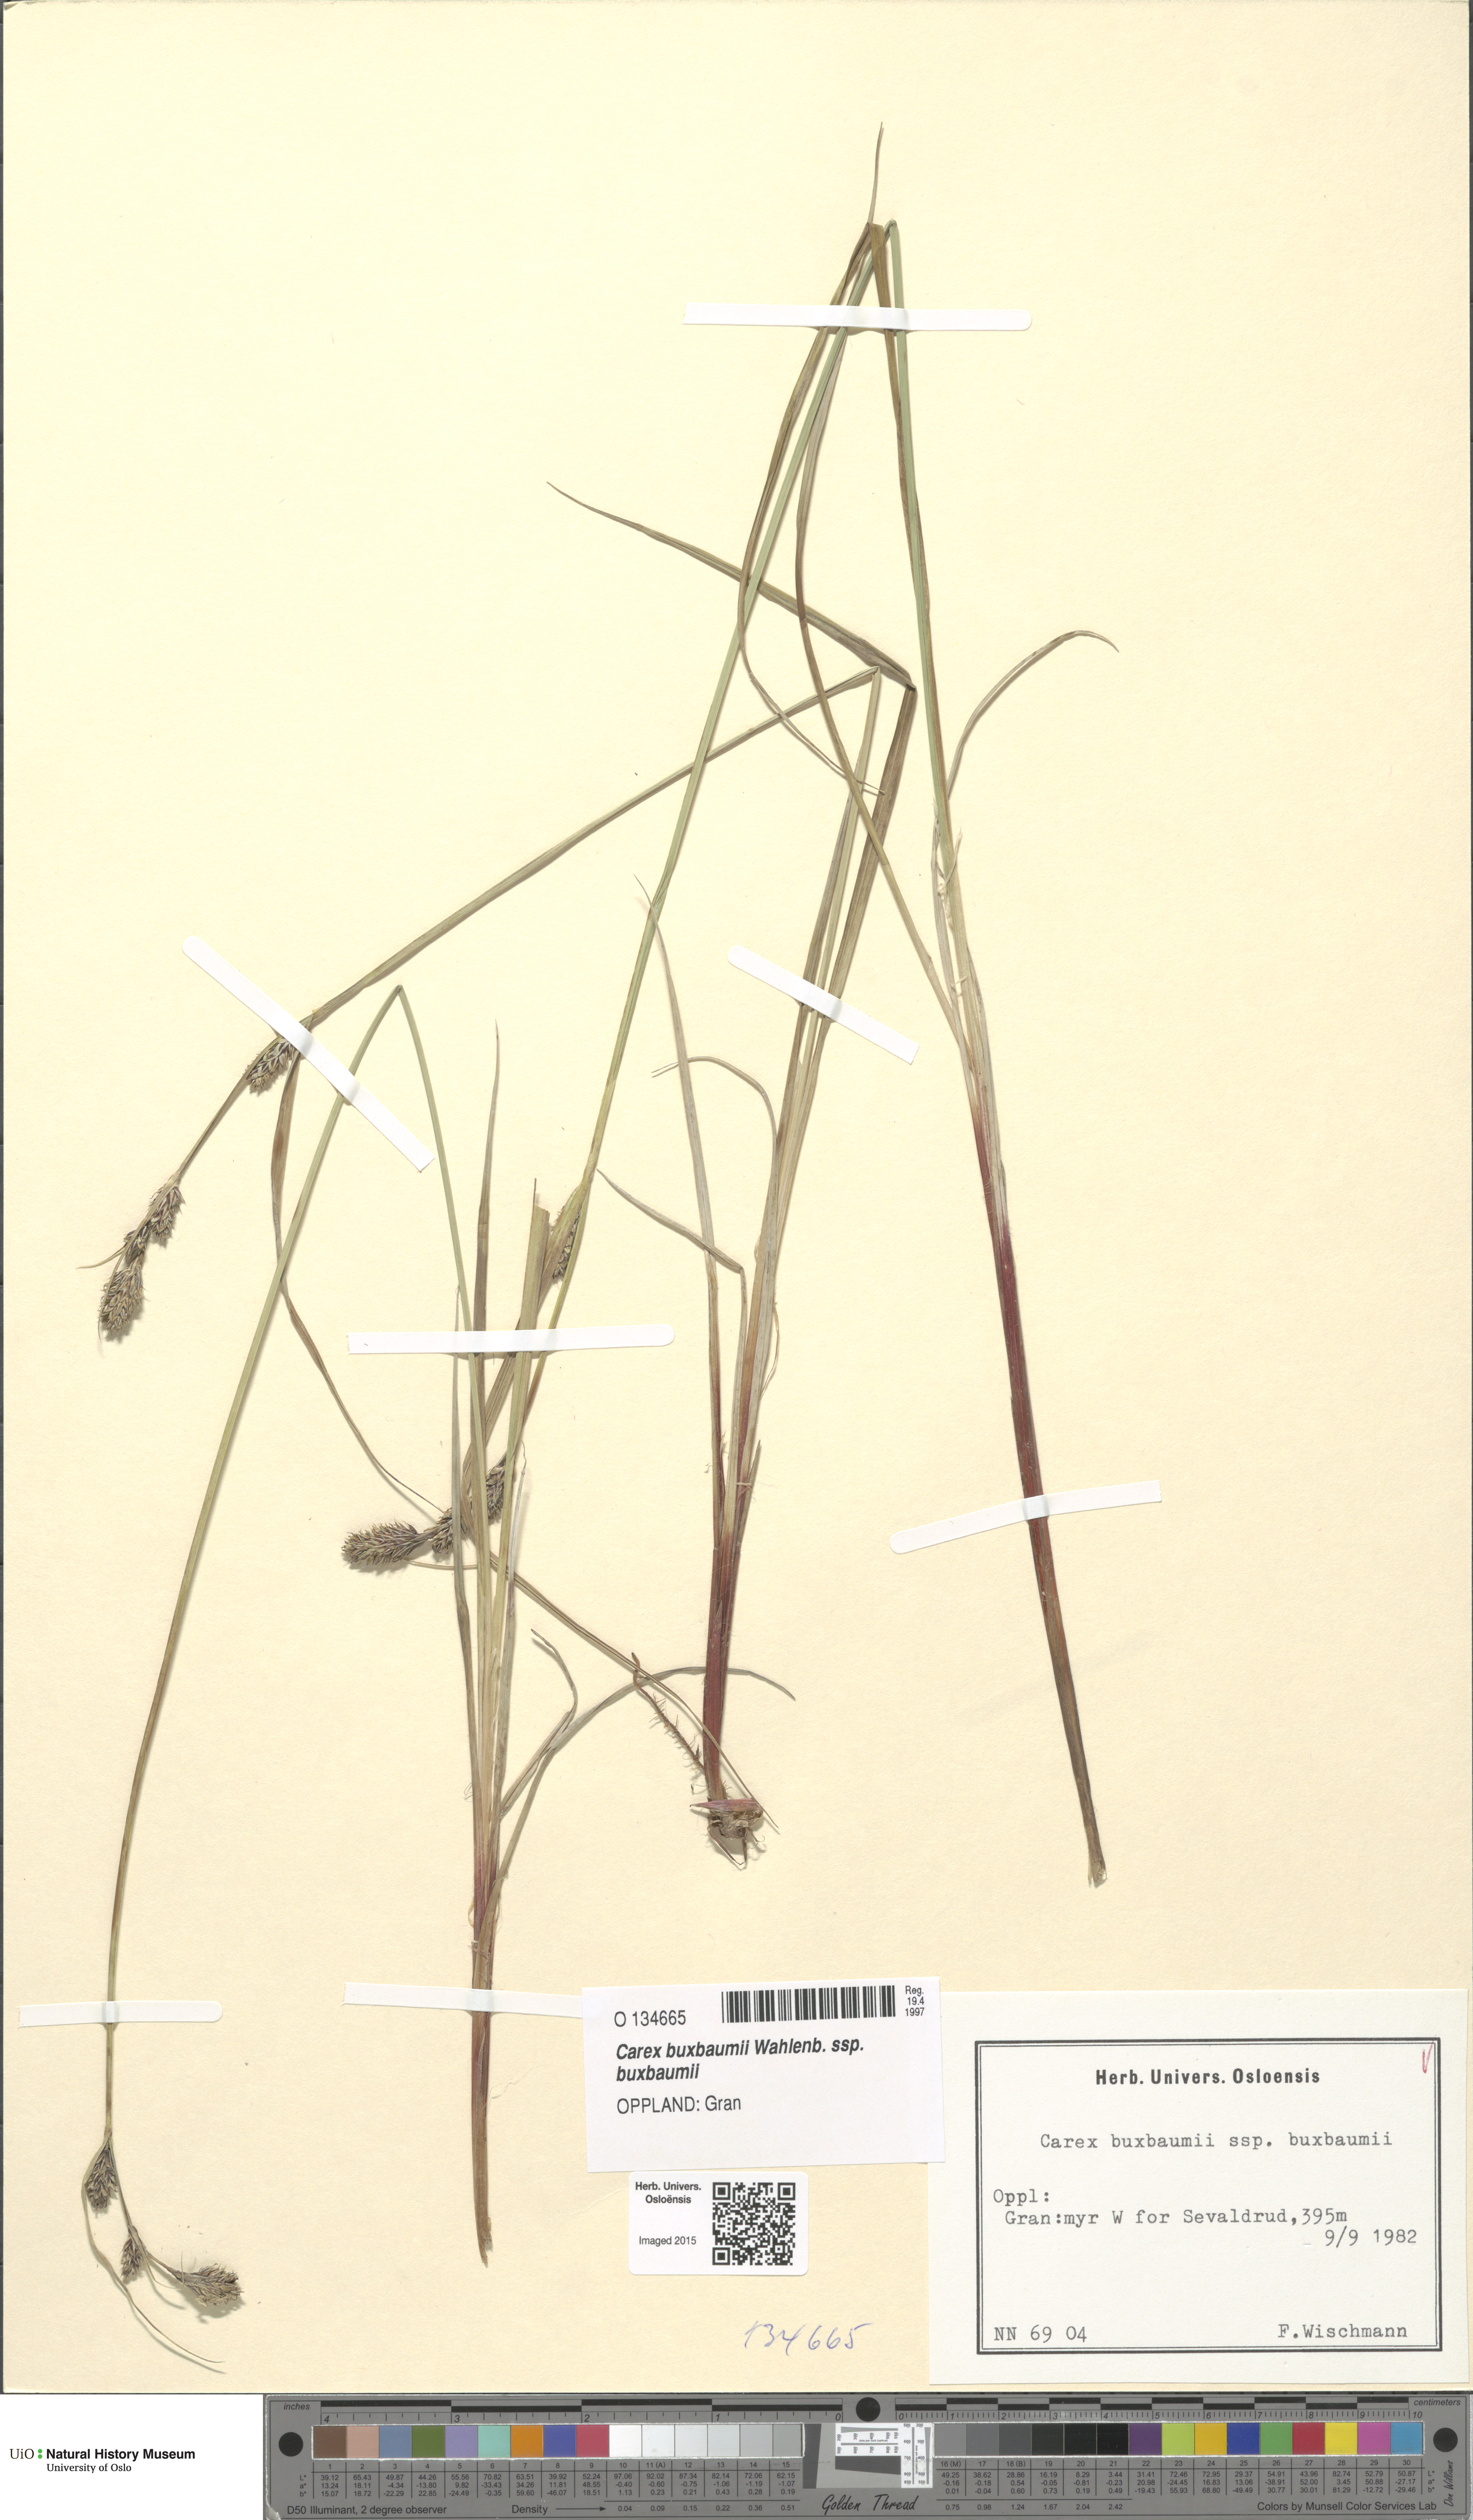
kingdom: Plantae
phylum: Tracheophyta
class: Liliopsida
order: Poales
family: Cyperaceae
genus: Carex
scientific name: Carex buxbaumii
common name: Club sedge
